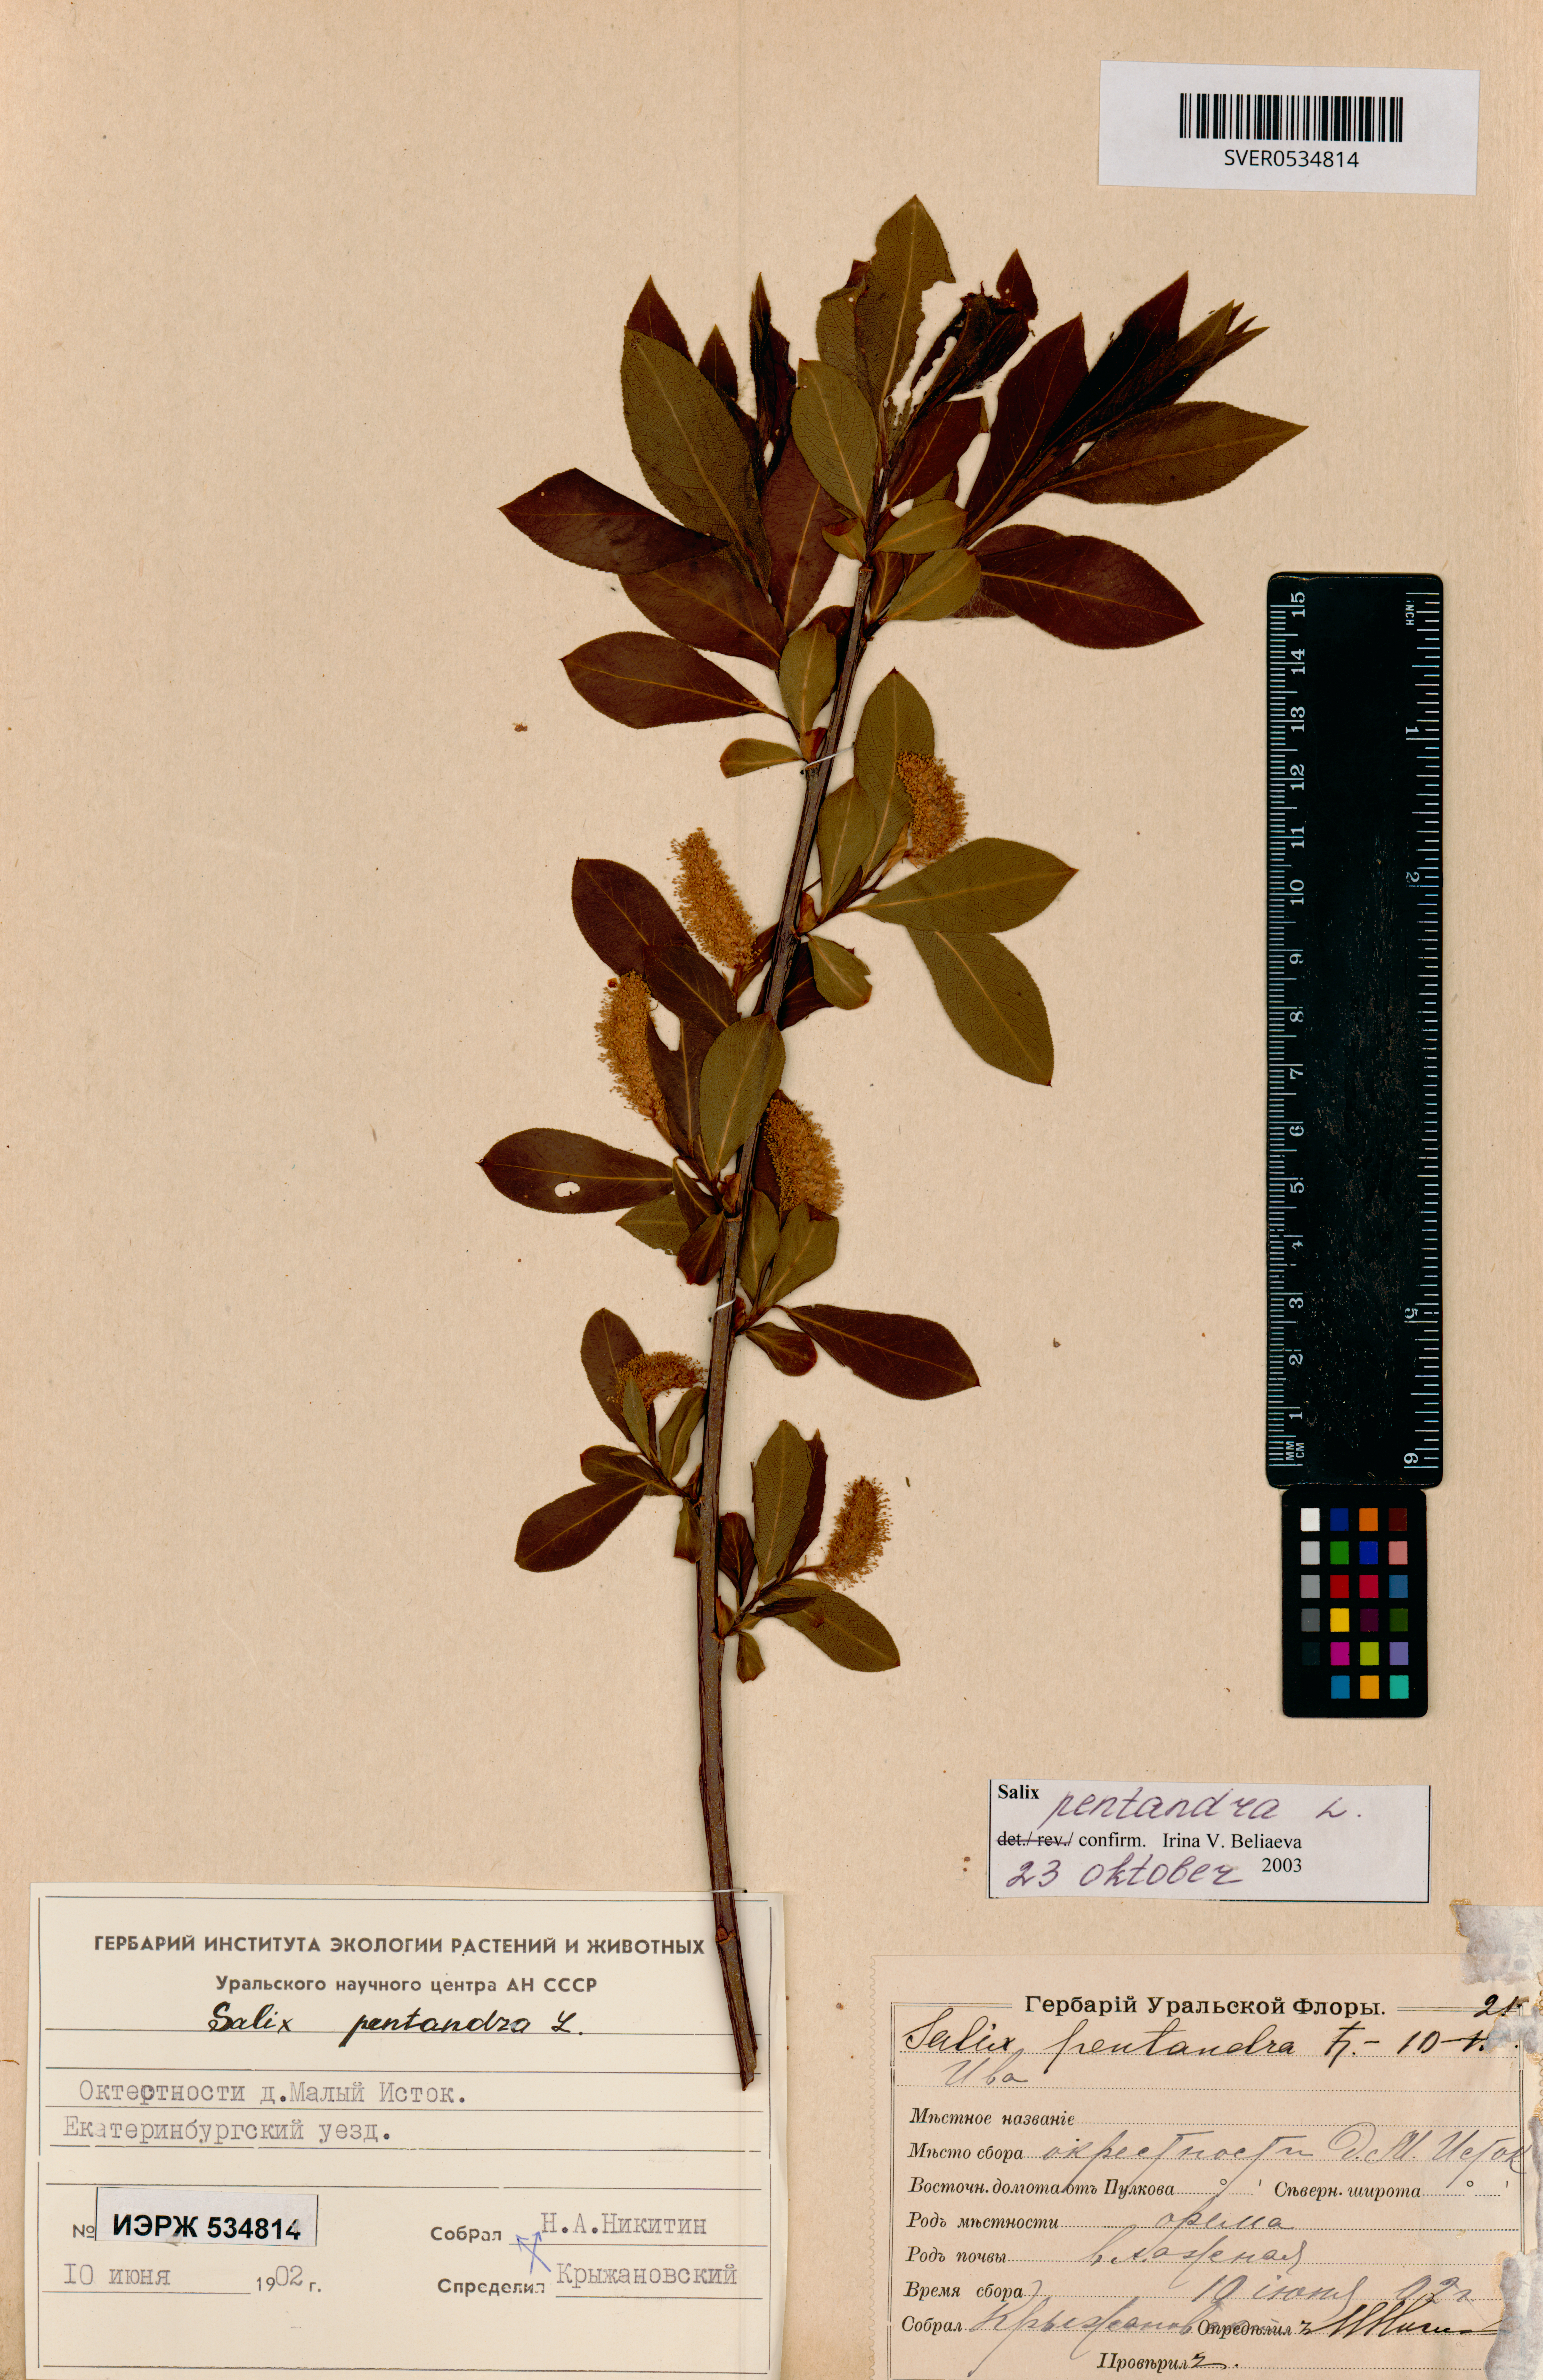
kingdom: Plantae
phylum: Tracheophyta
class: Magnoliopsida
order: Malpighiales
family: Salicaceae
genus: Salix
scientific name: Salix pentandra
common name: Bay willow
